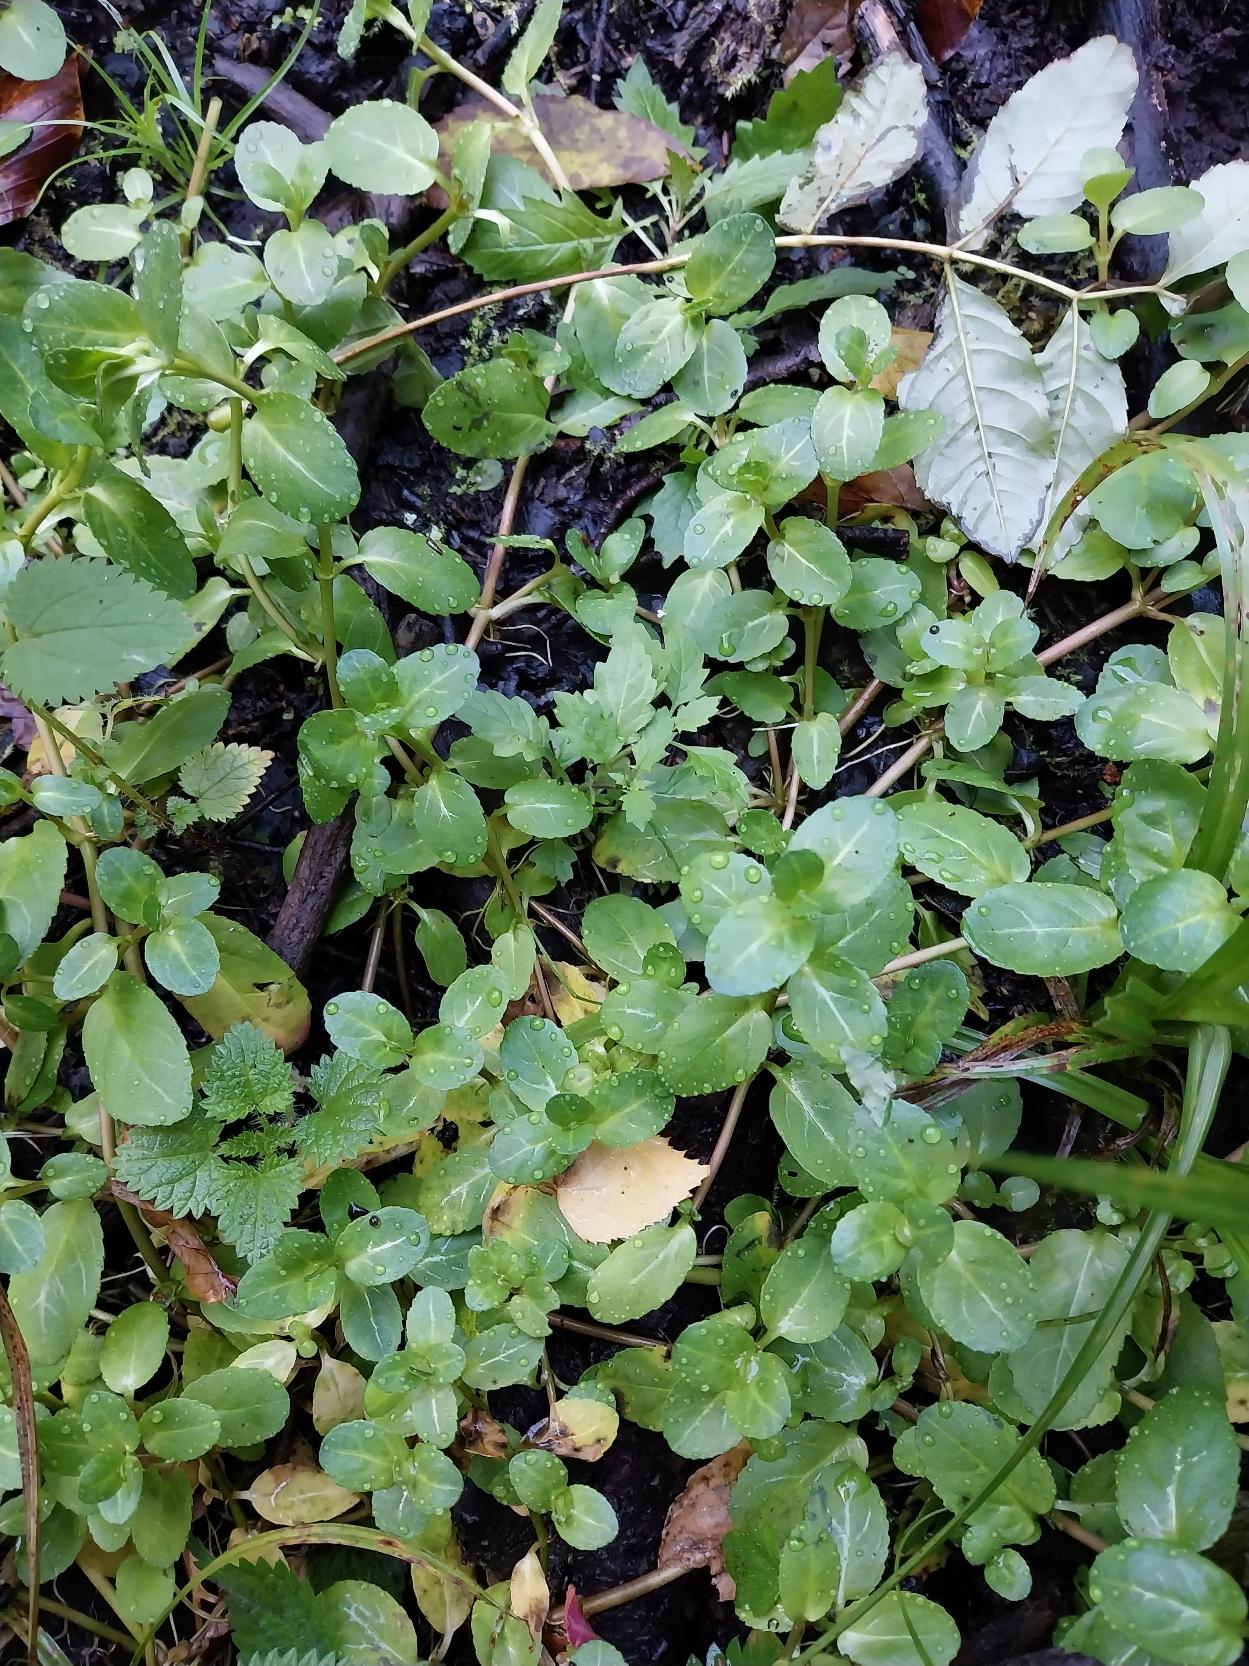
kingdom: Plantae
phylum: Tracheophyta
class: Magnoliopsida
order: Lamiales
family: Plantaginaceae
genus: Veronica
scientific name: Veronica beccabunga
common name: Tykbladet ærenpris
